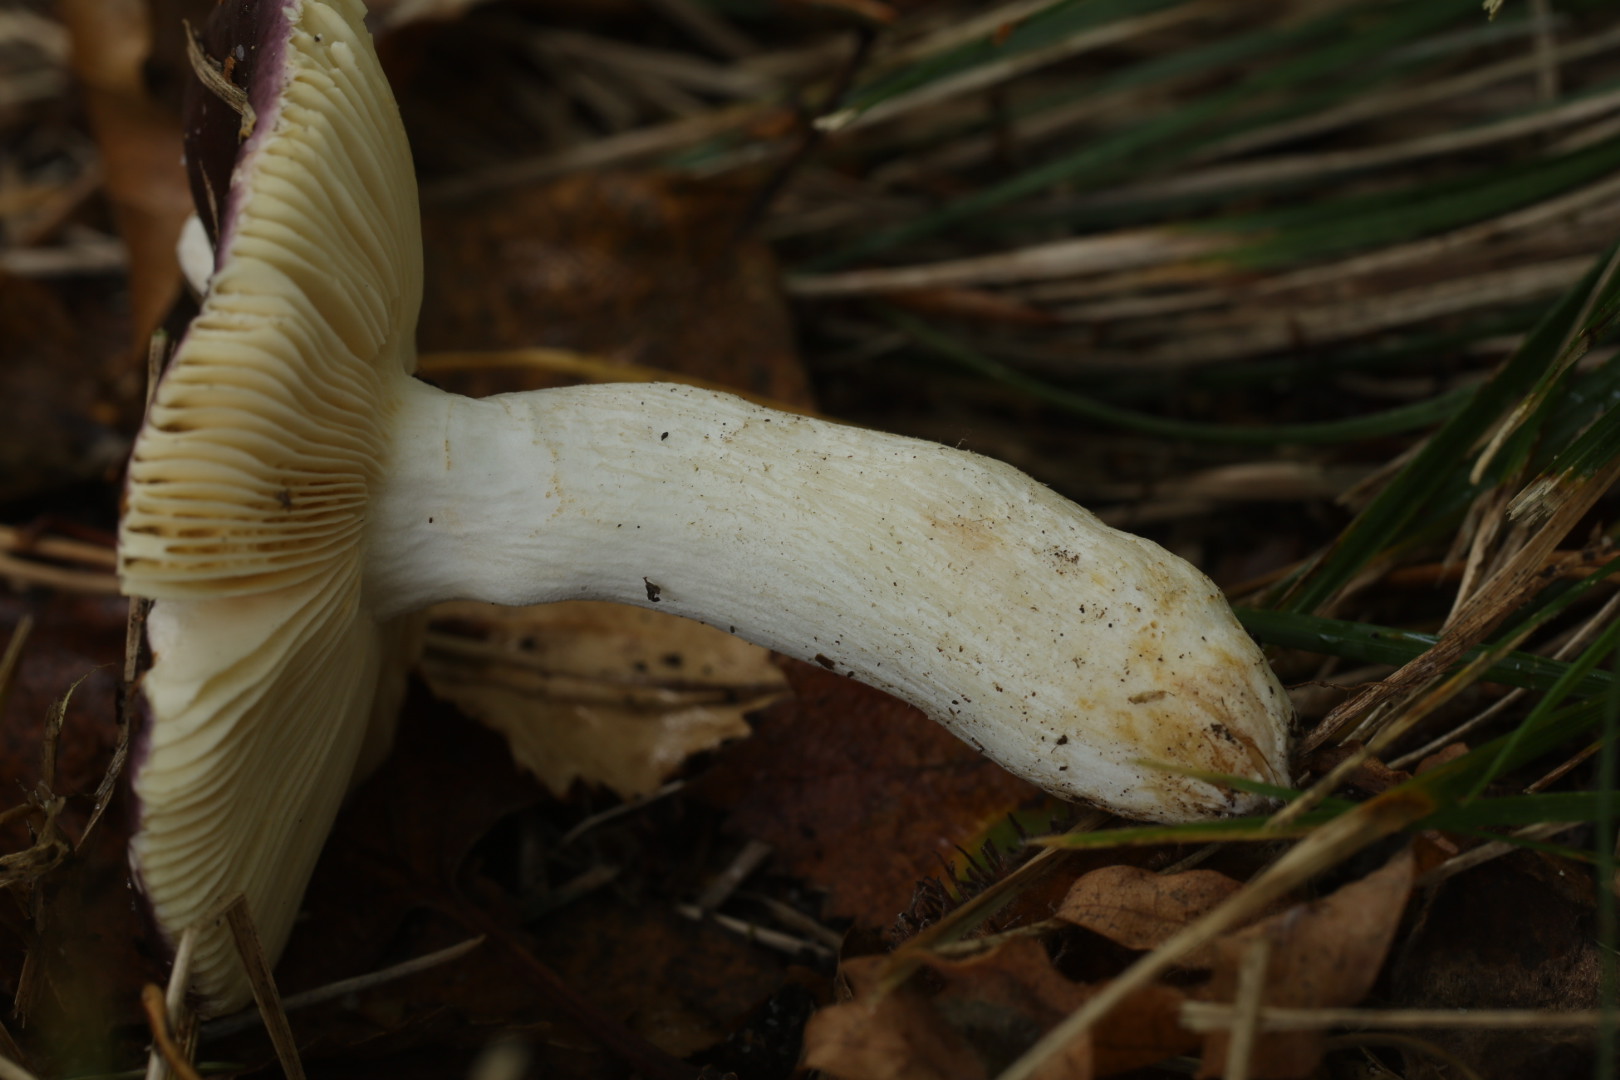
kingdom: Fungi
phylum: Basidiomycota
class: Agaricomycetes
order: Russulales
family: Russulaceae
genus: Russula
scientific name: Russula caerulea
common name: puklet skørhat
